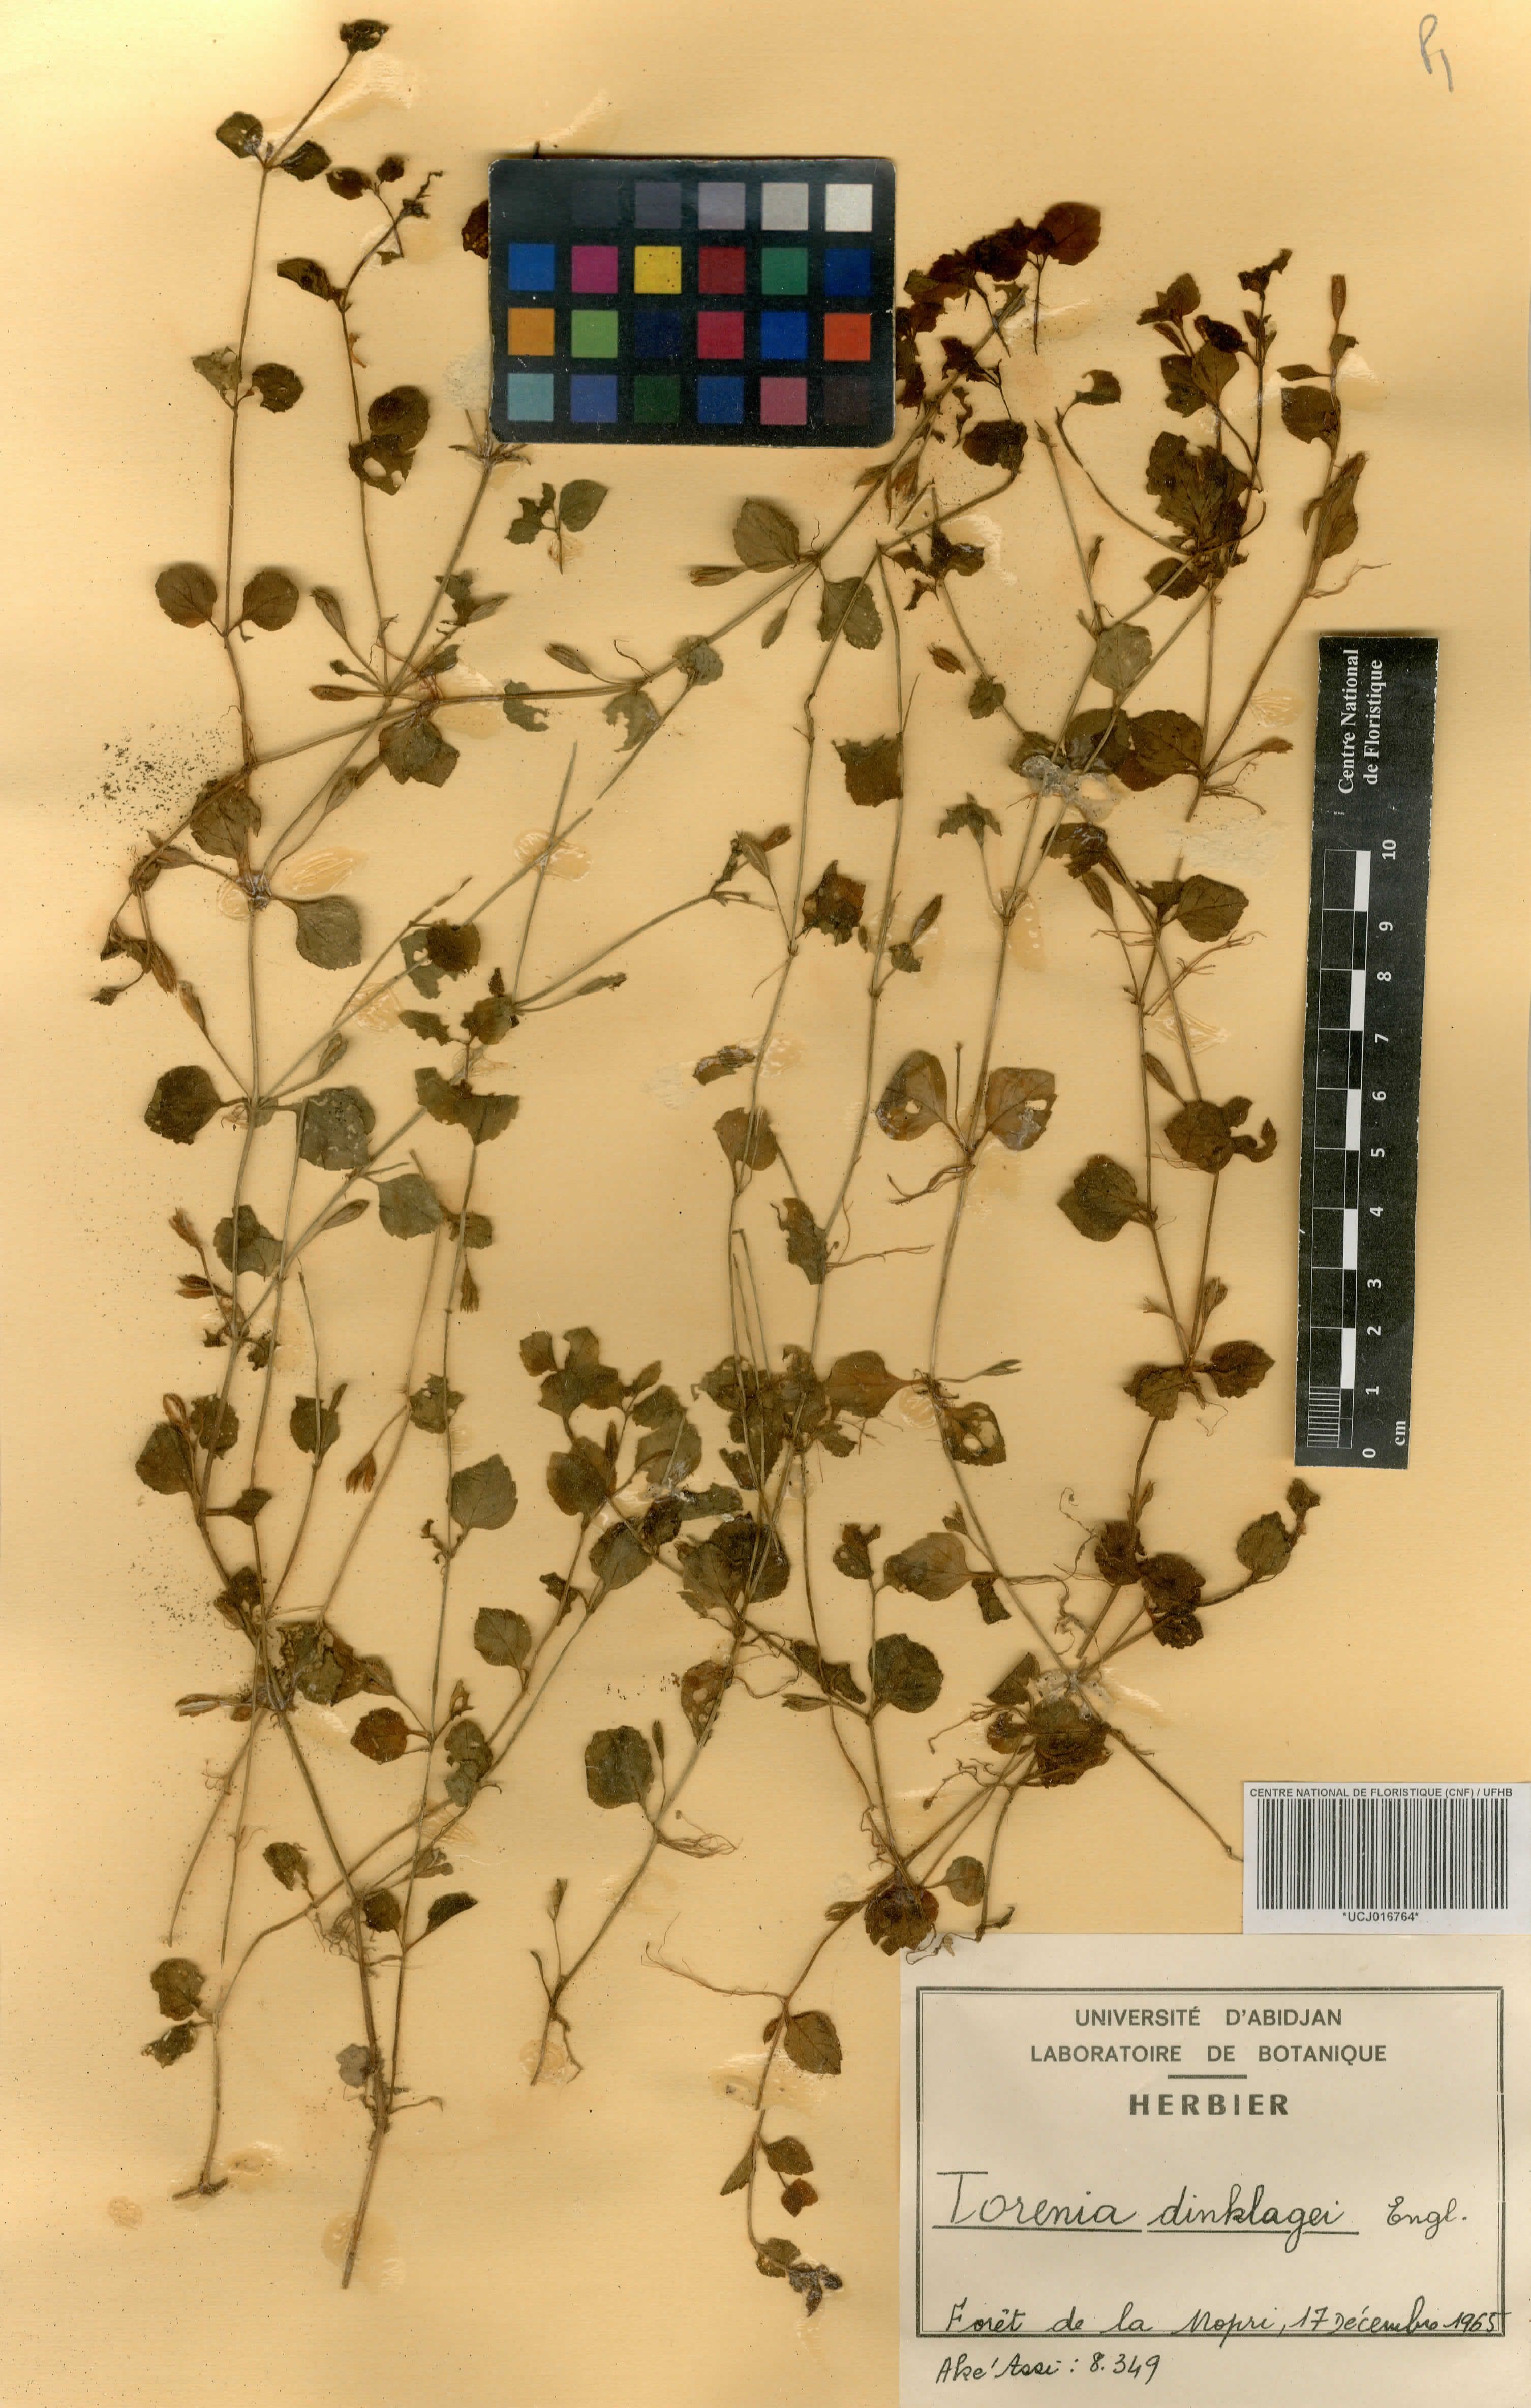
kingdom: Plantae
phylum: Tracheophyta
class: Magnoliopsida
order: Lamiales
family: Linderniaceae
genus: Torenia
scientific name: Torenia dinklagei
